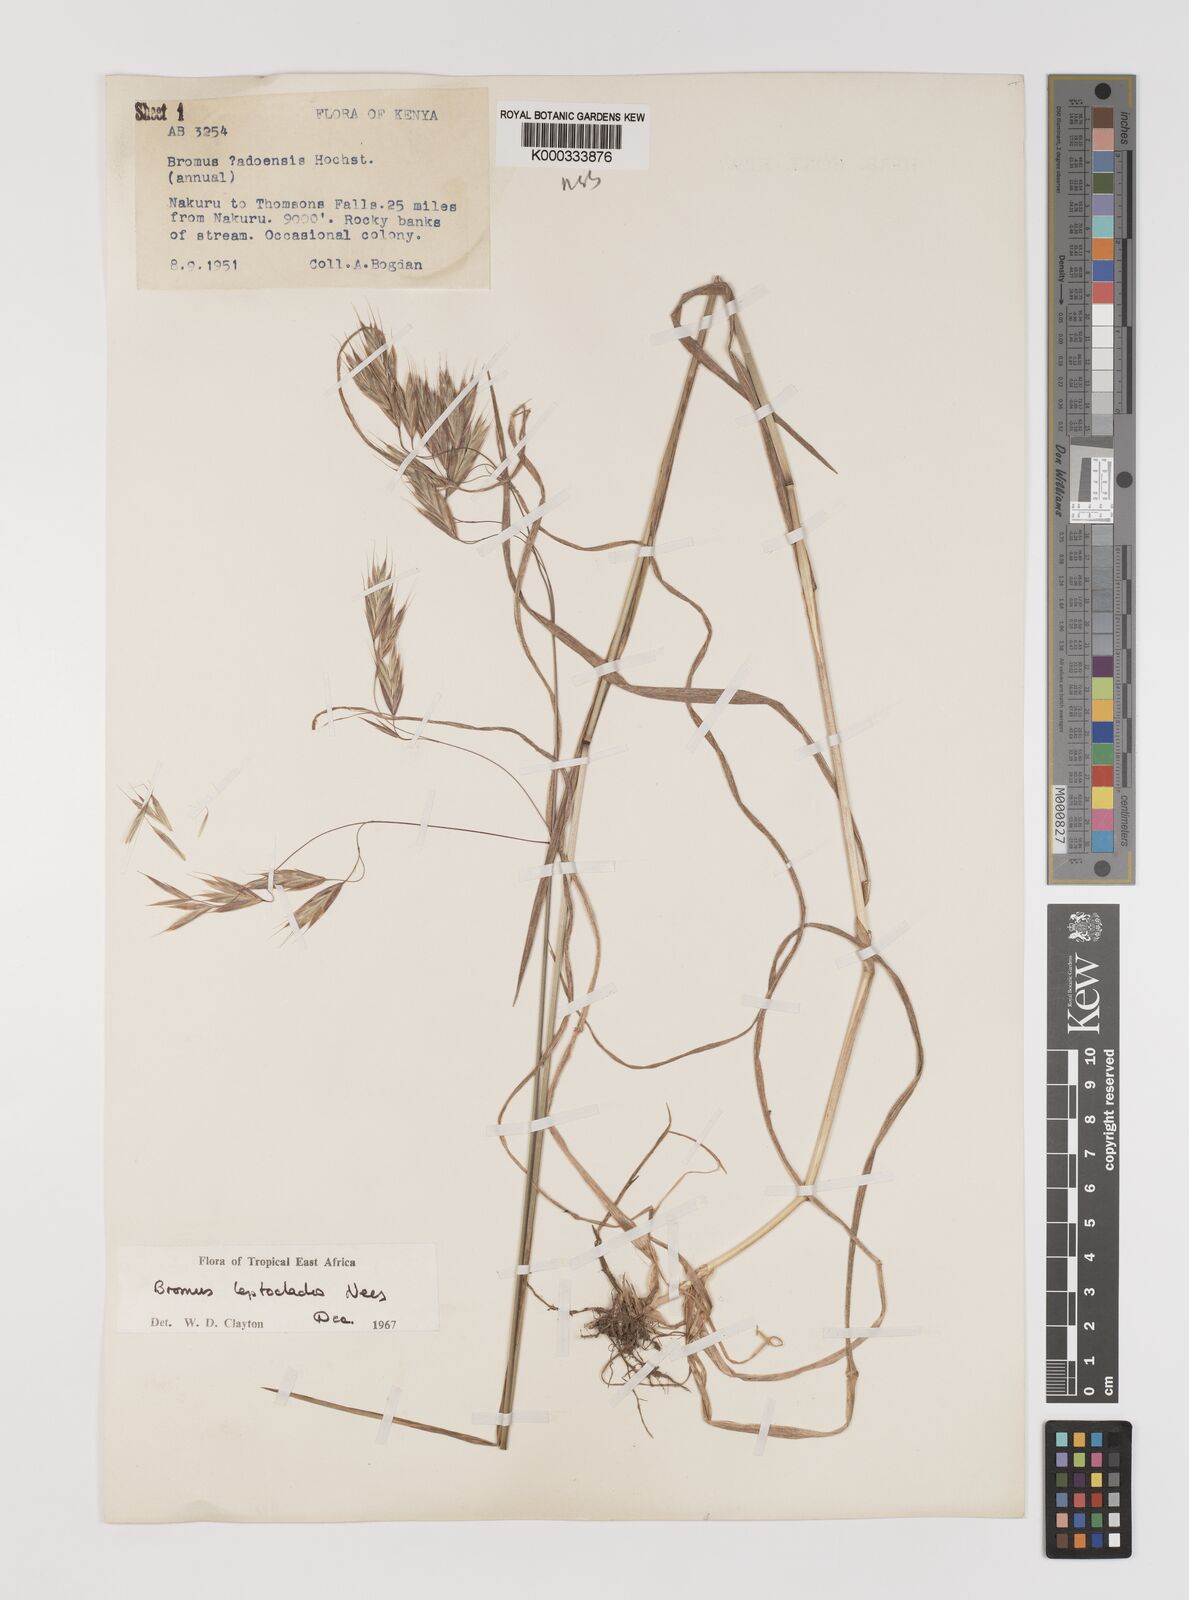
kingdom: Plantae
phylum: Tracheophyta
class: Liliopsida
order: Poales
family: Poaceae
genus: Bromus
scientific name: Bromus leptoclados
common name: Mountain bromegrass
